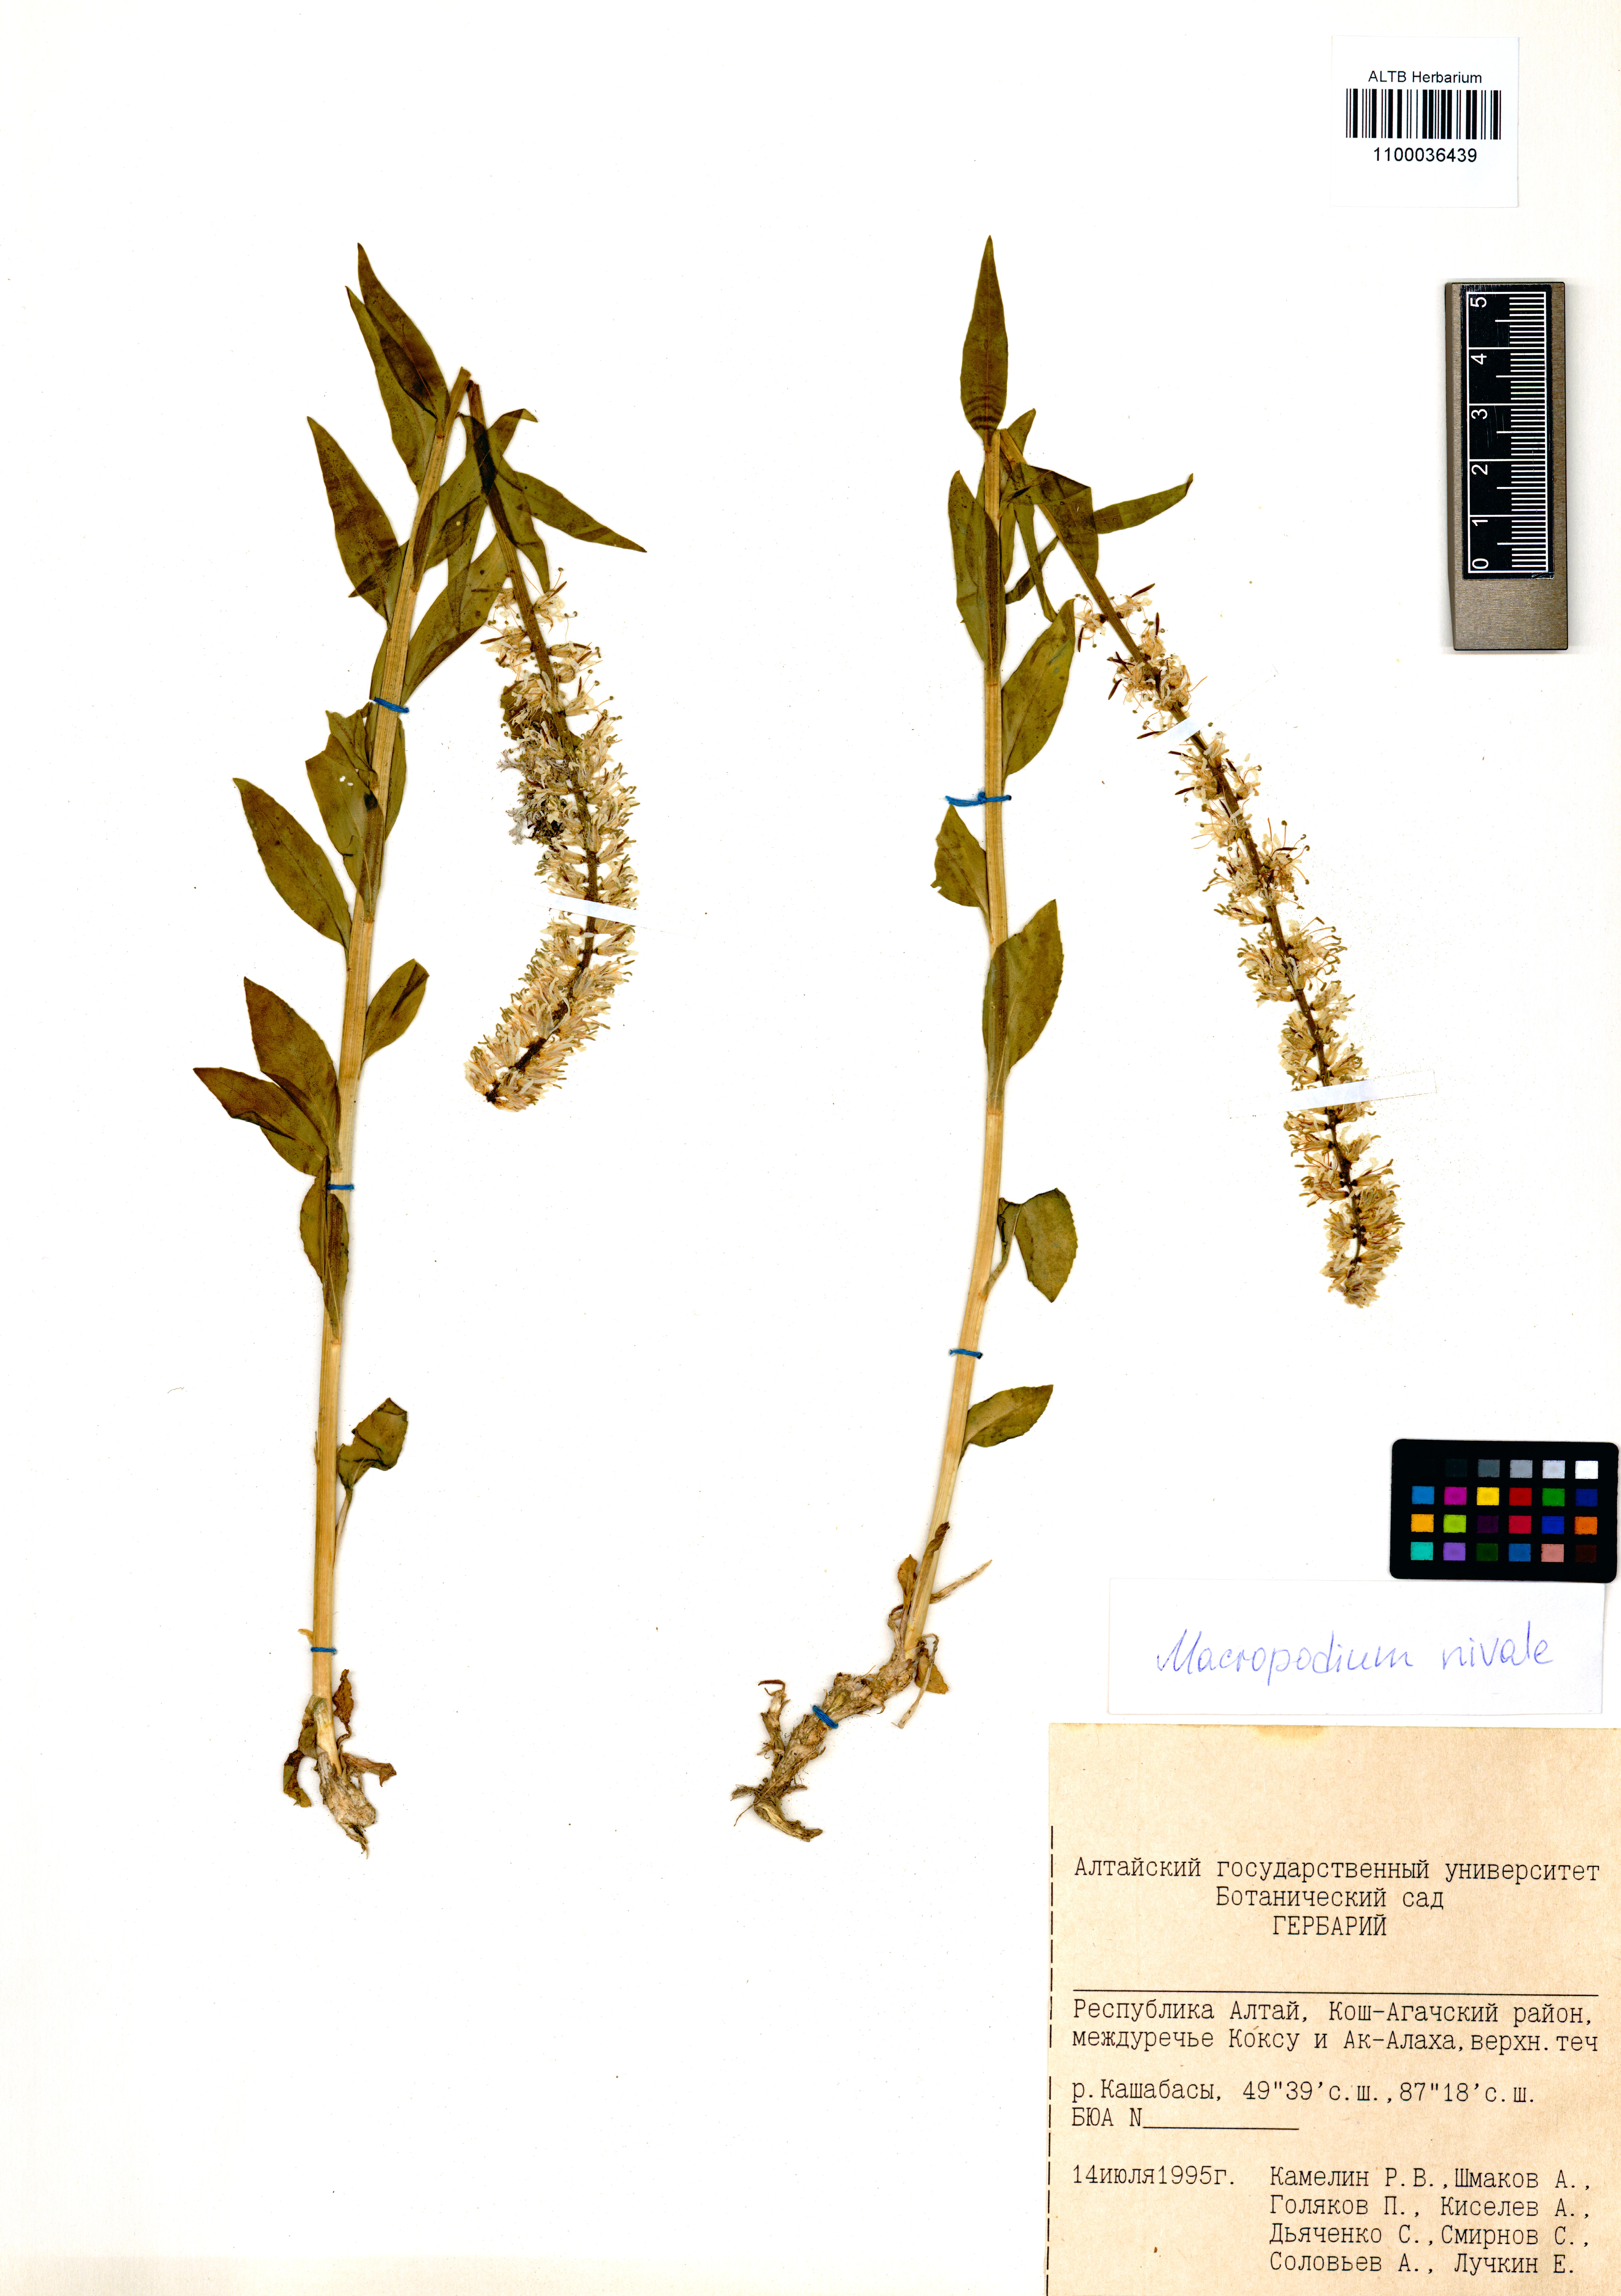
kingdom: Plantae
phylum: Tracheophyta
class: Magnoliopsida
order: Brassicales
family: Brassicaceae
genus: Macropodium
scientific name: Macropodium nivale
